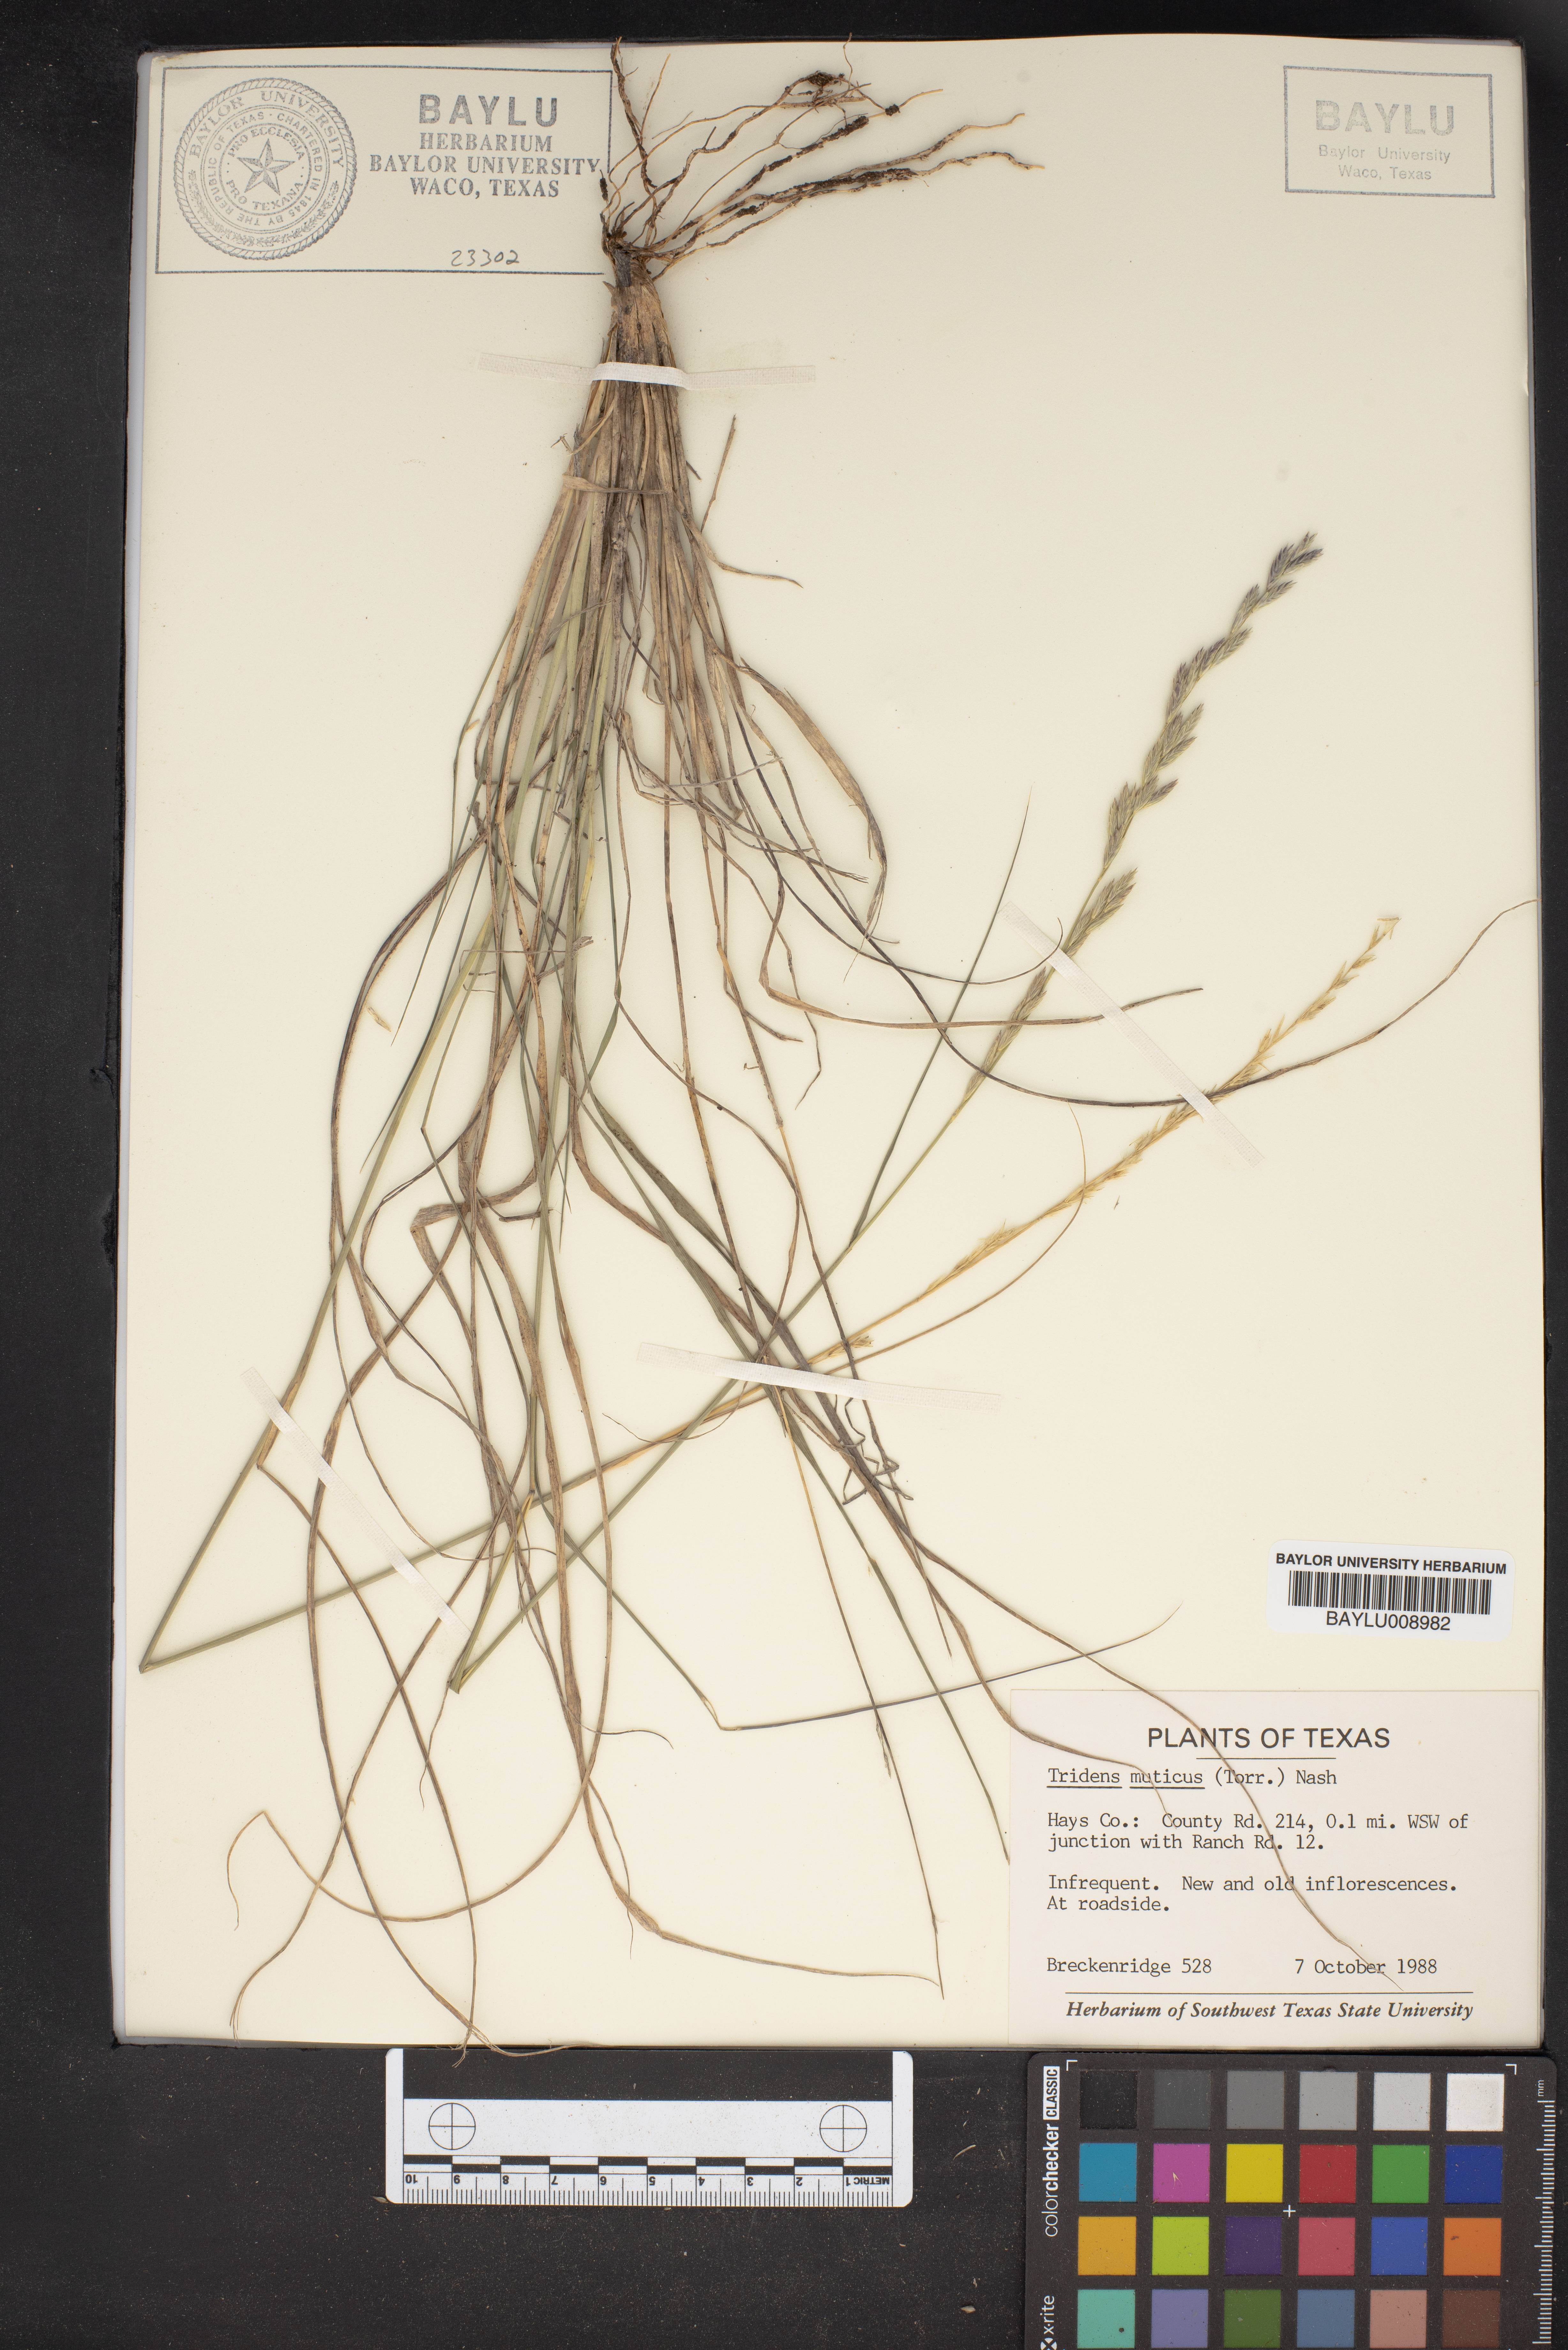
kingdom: Plantae
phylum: Tracheophyta
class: Liliopsida
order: Poales
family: Poaceae
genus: Tridentopsis
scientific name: Tridentopsis mutica
